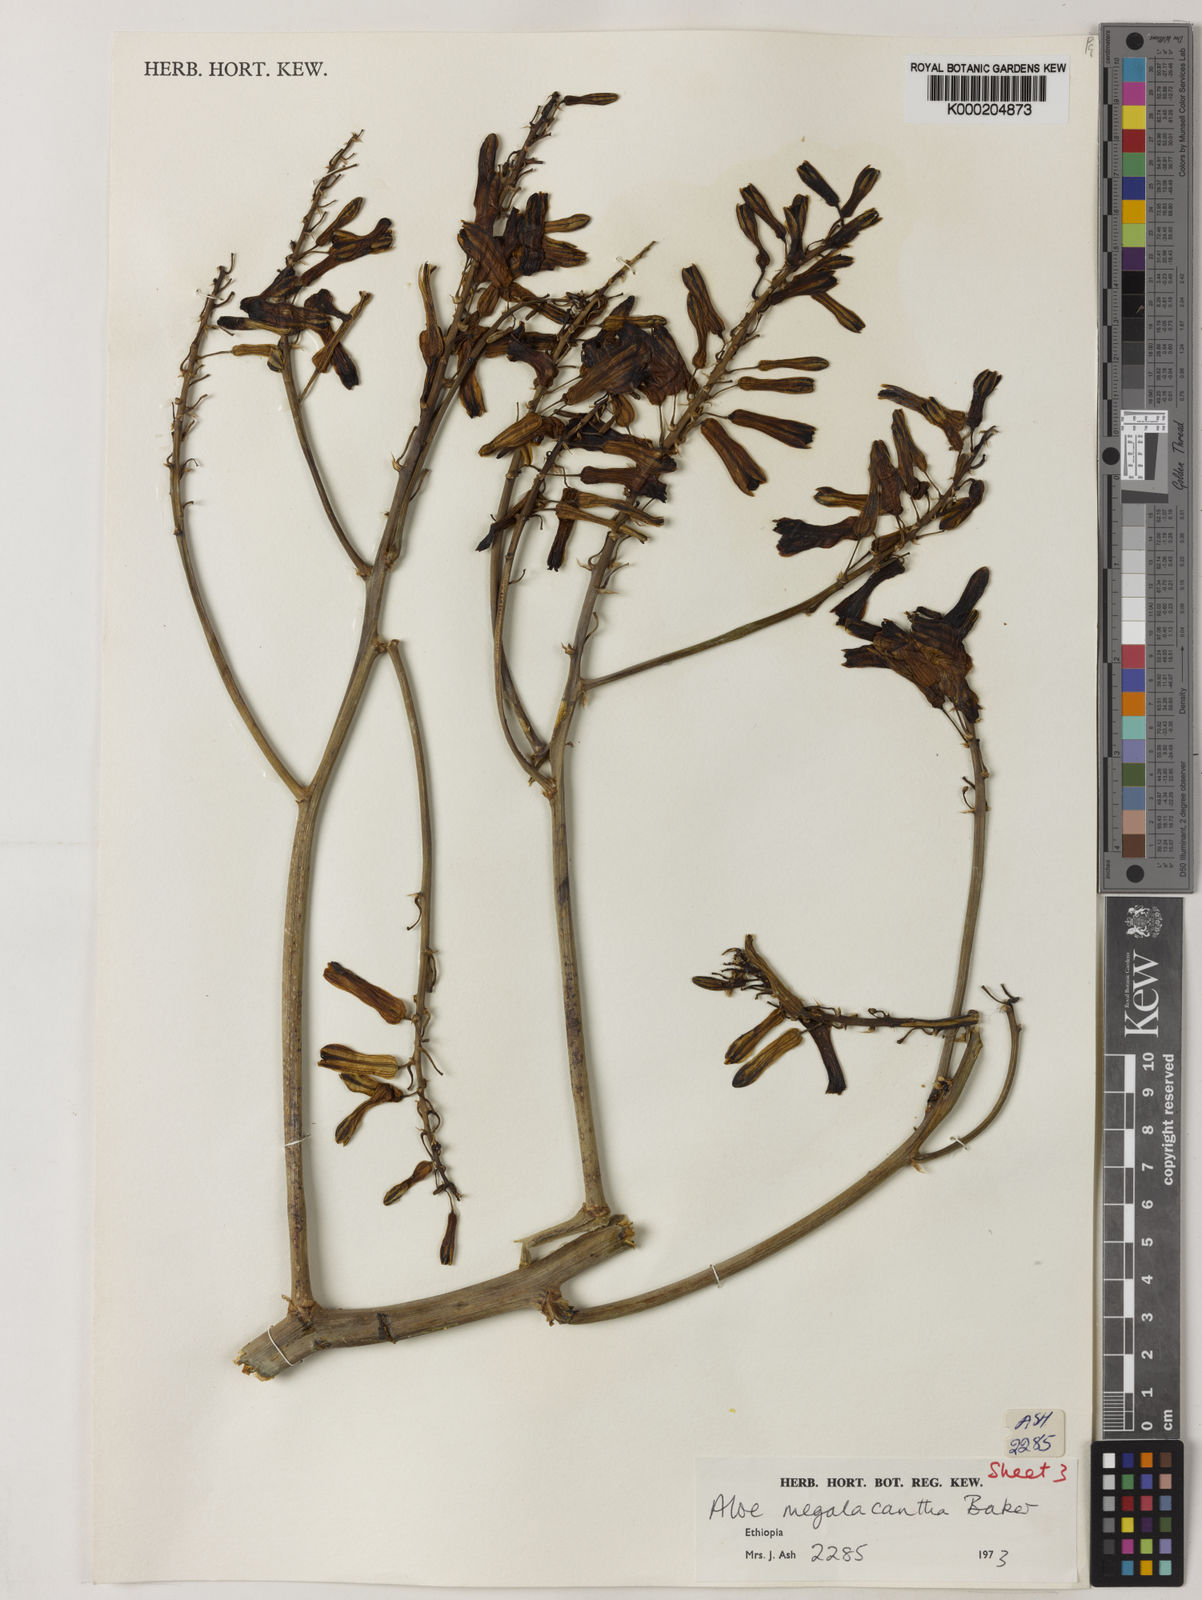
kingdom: Plantae
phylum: Tracheophyta
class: Liliopsida
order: Asparagales
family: Asphodelaceae
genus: Aloe
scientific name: Aloe gilbertii
